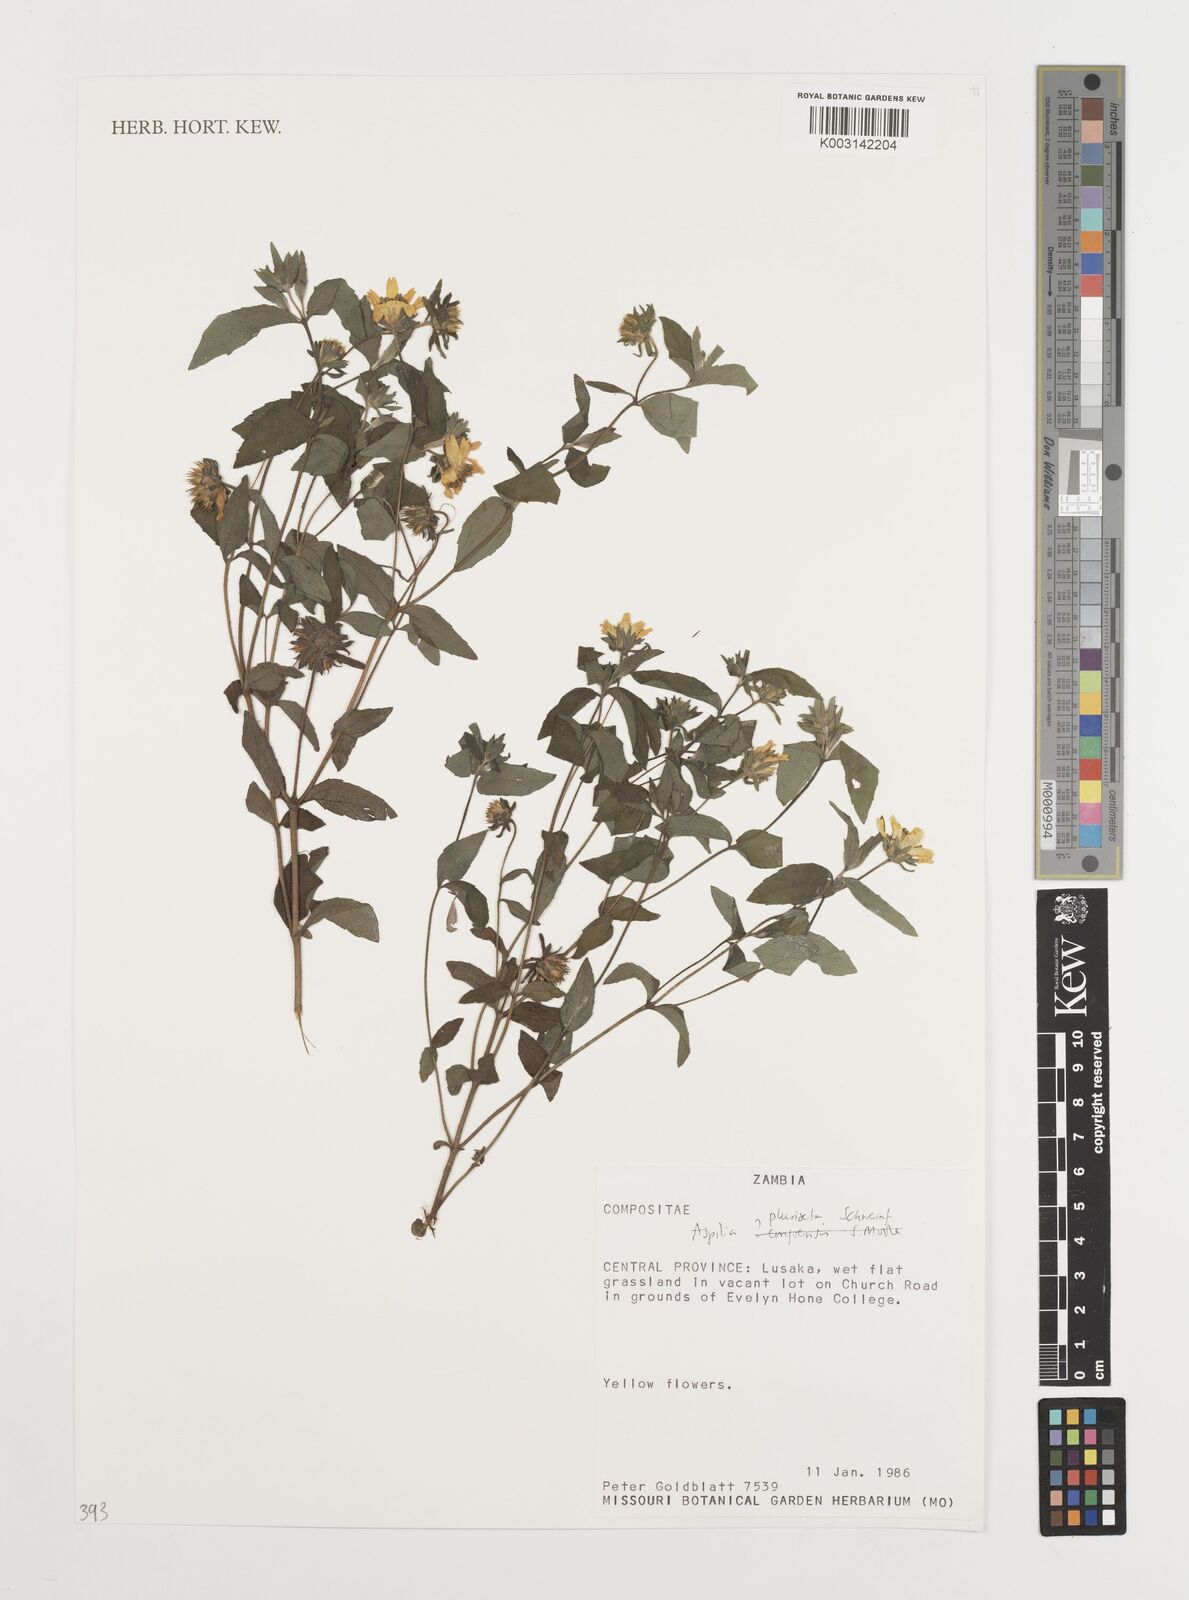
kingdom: Plantae
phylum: Tracheophyta
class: Magnoliopsida
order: Asterales
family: Asteraceae
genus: Aspilia
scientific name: Aspilia pluriseta
